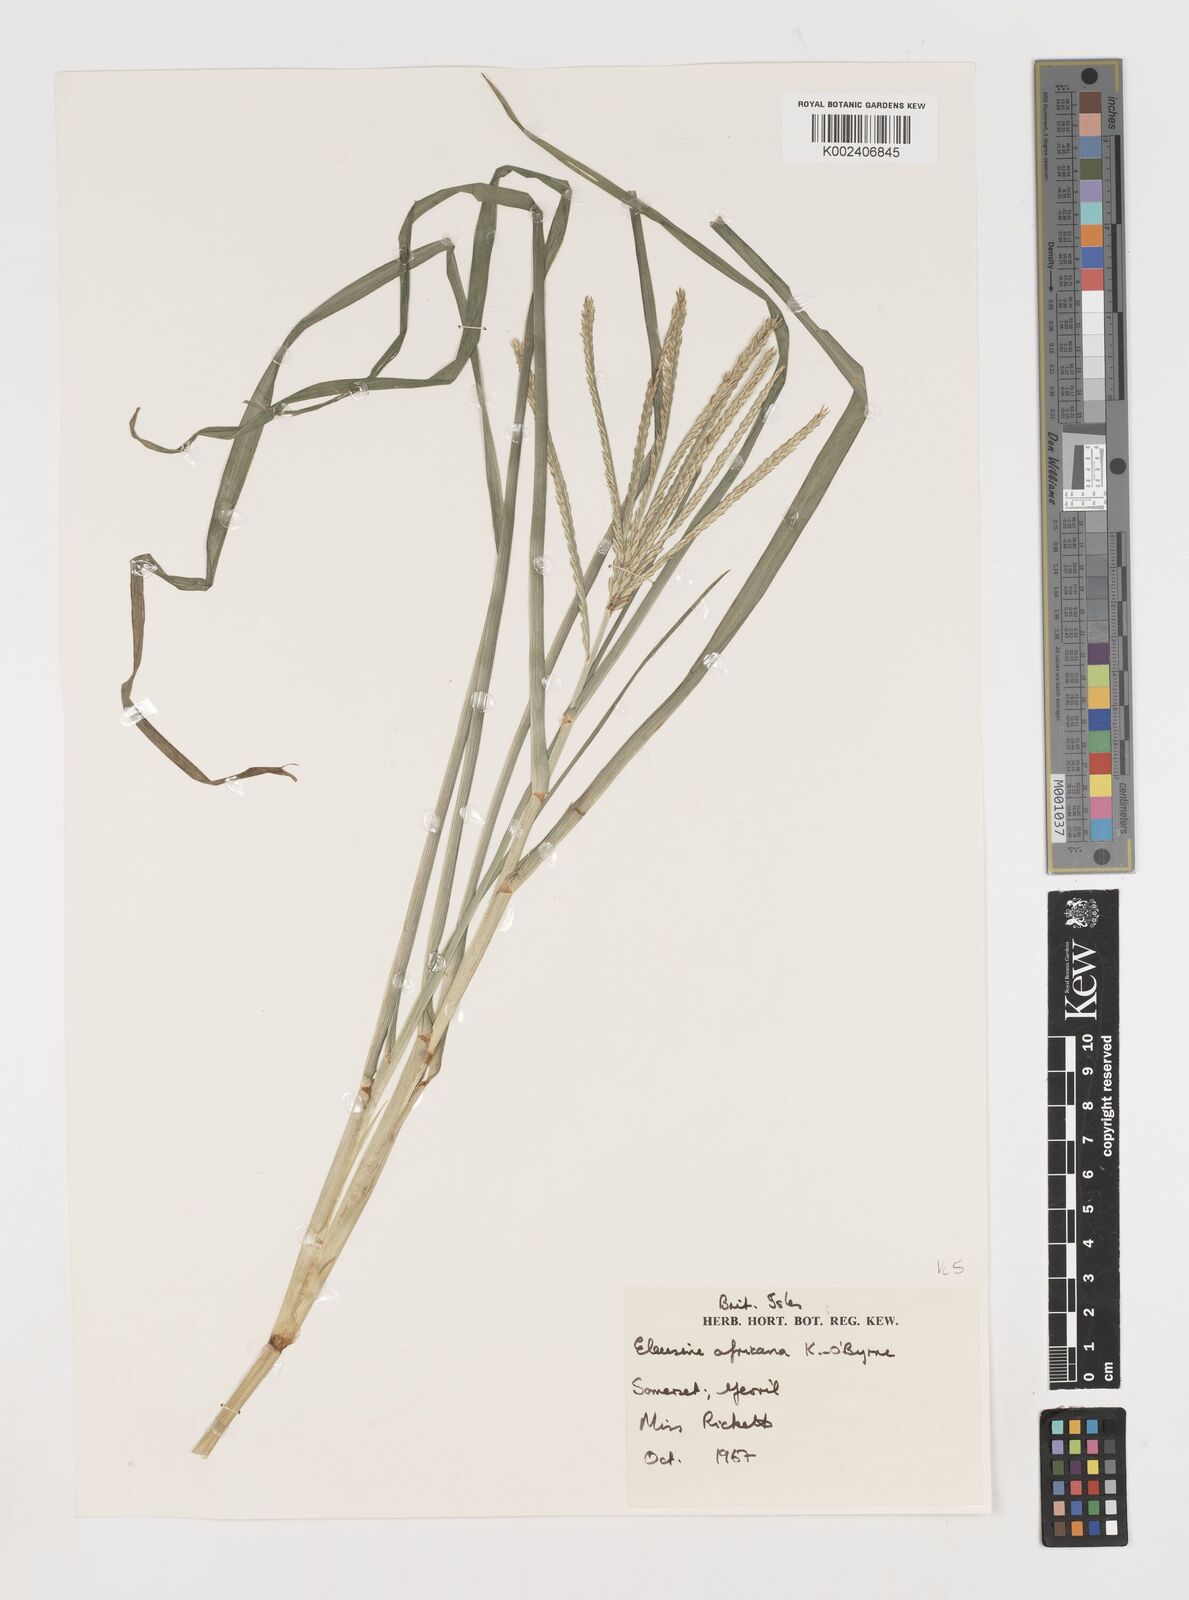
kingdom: Plantae
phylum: Tracheophyta
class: Liliopsida
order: Poales
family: Poaceae
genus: Eleusine
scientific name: Eleusine africana
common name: Wild african finger millet
